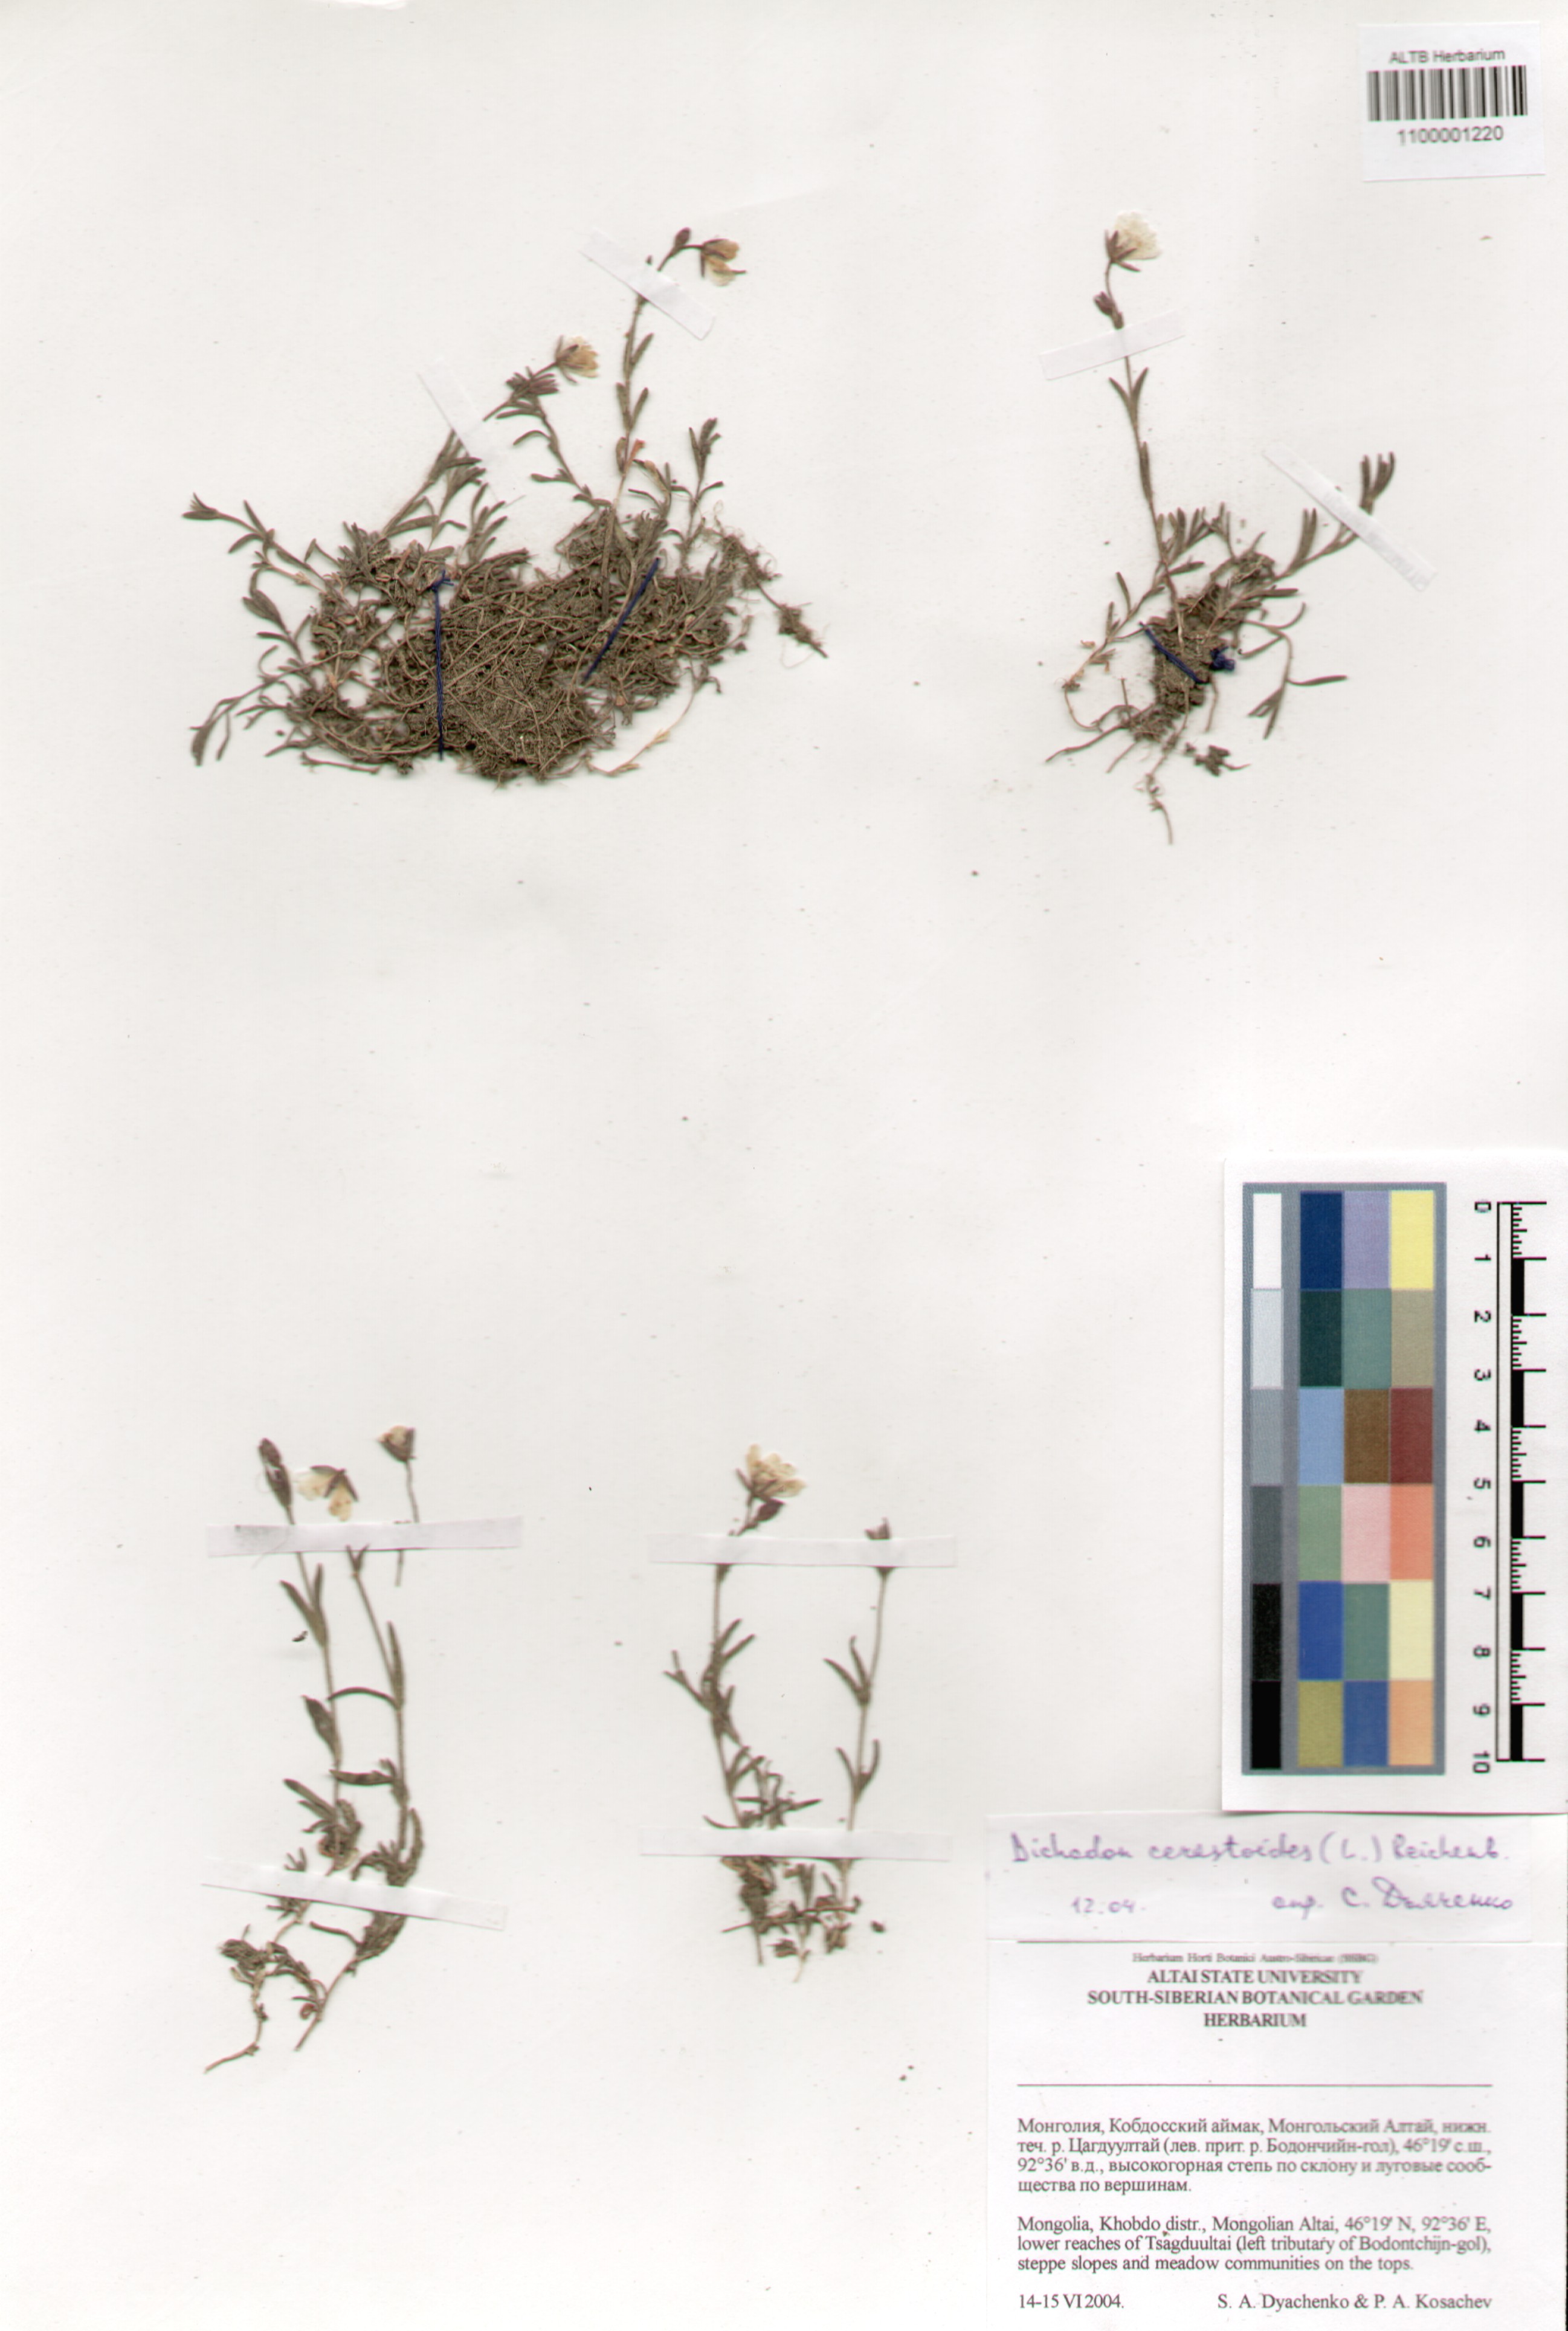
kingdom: Plantae
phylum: Tracheophyta
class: Magnoliopsida
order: Caryophyllales
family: Caryophyllaceae
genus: Dichodon
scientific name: Dichodon cerastoides
